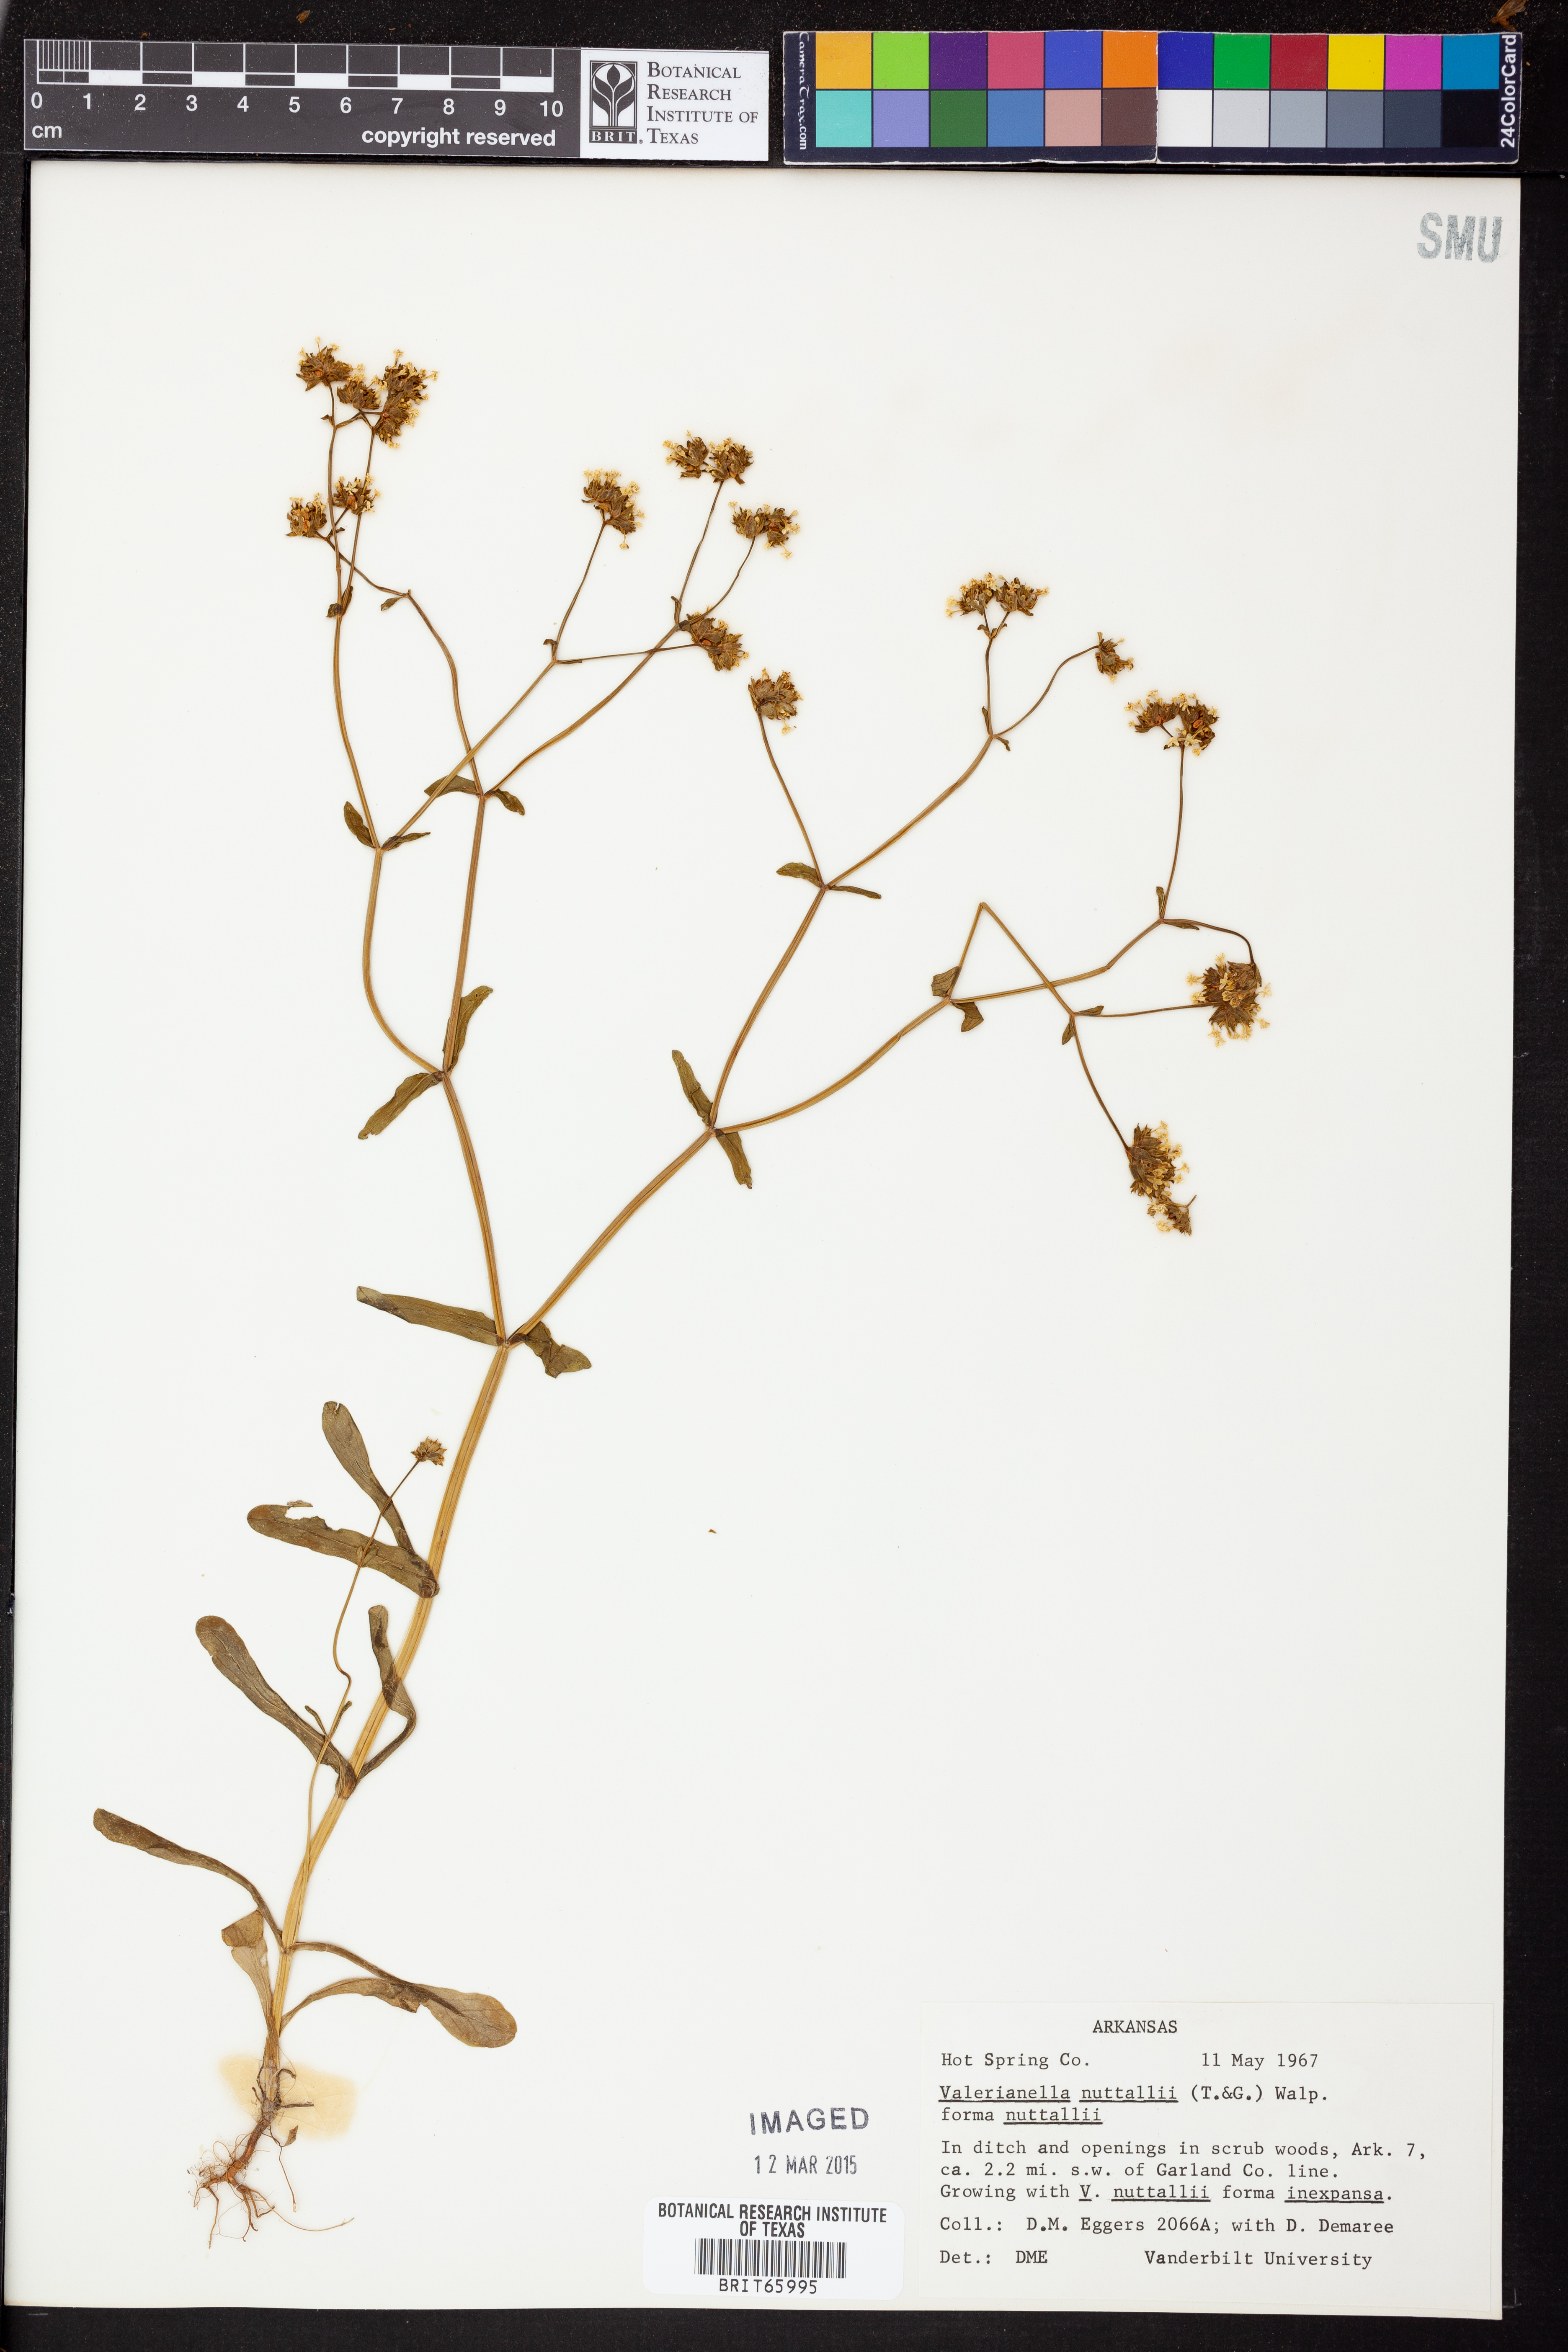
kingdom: Plantae
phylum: Tracheophyta
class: Magnoliopsida
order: Dipsacales
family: Caprifoliaceae
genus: Valerianella
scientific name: Valerianella nuttallii
